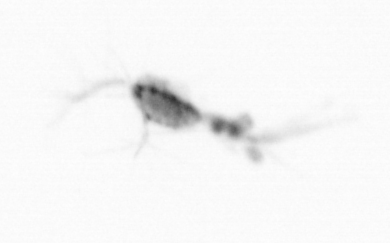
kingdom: Animalia
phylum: Arthropoda
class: Copepoda
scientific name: Copepoda
